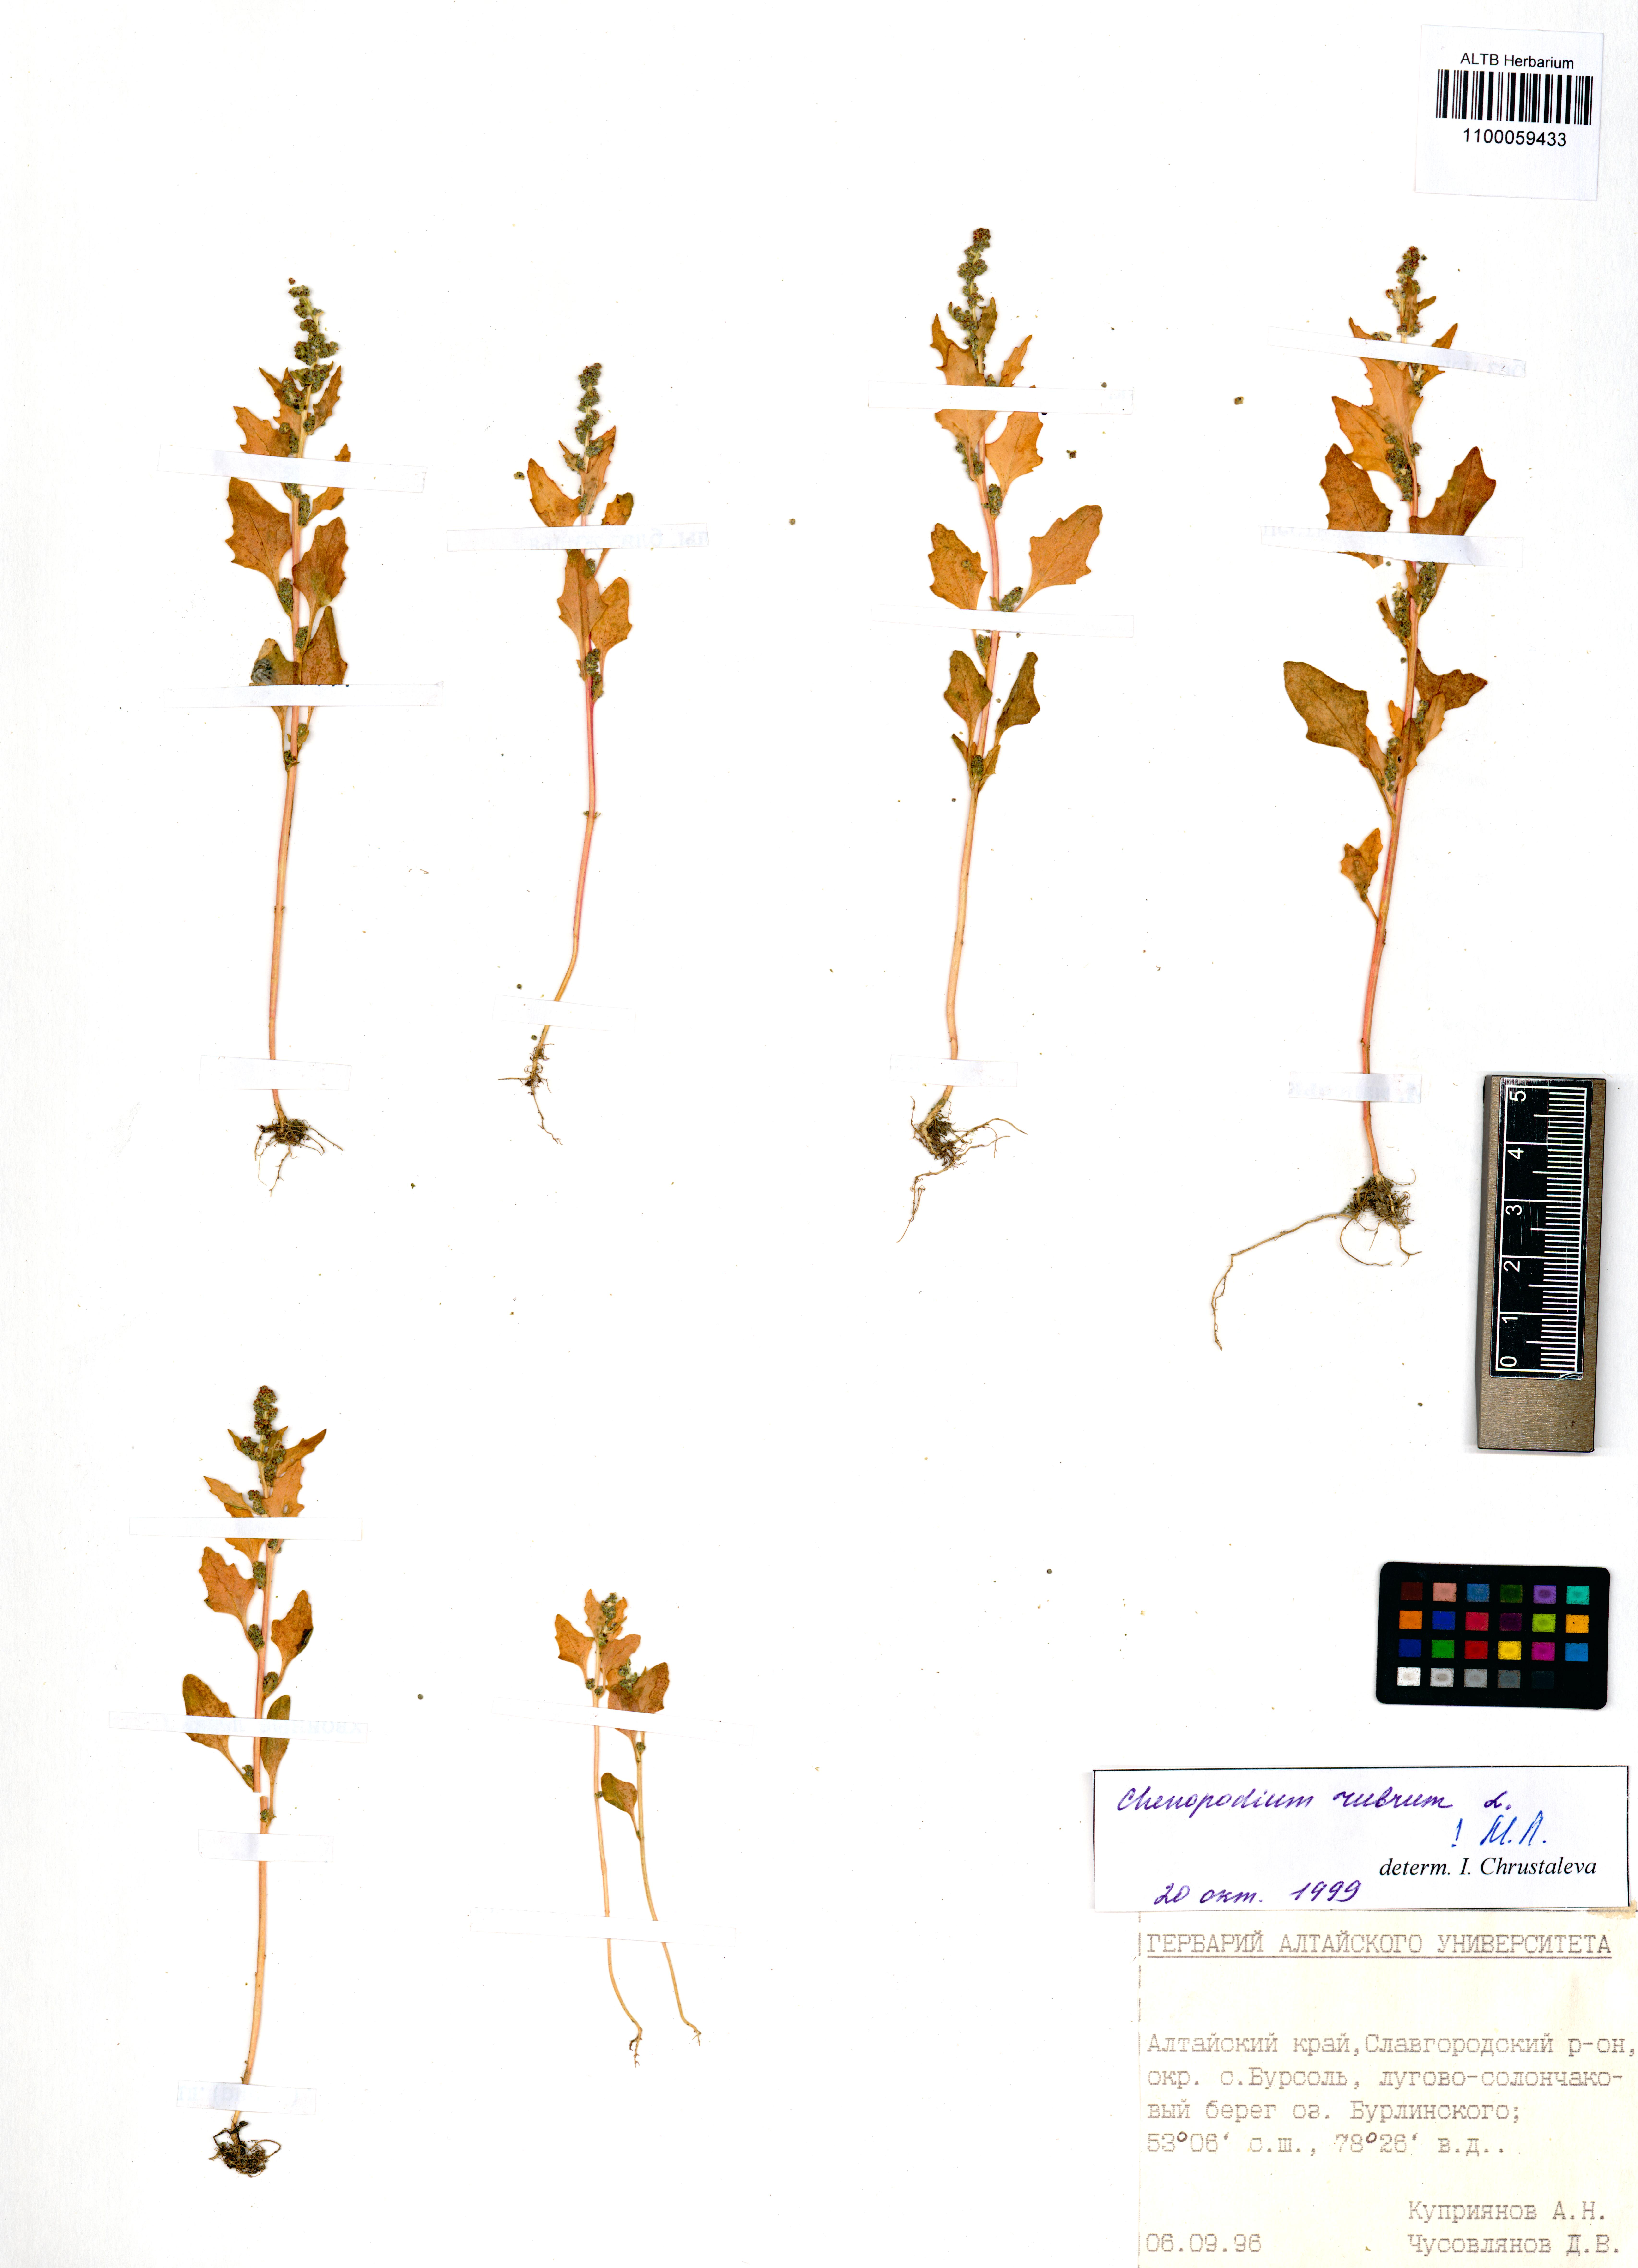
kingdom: Plantae
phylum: Tracheophyta
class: Magnoliopsida
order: Caryophyllales
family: Amaranthaceae
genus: Oxybasis
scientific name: Oxybasis rubra
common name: Red goosefoot
